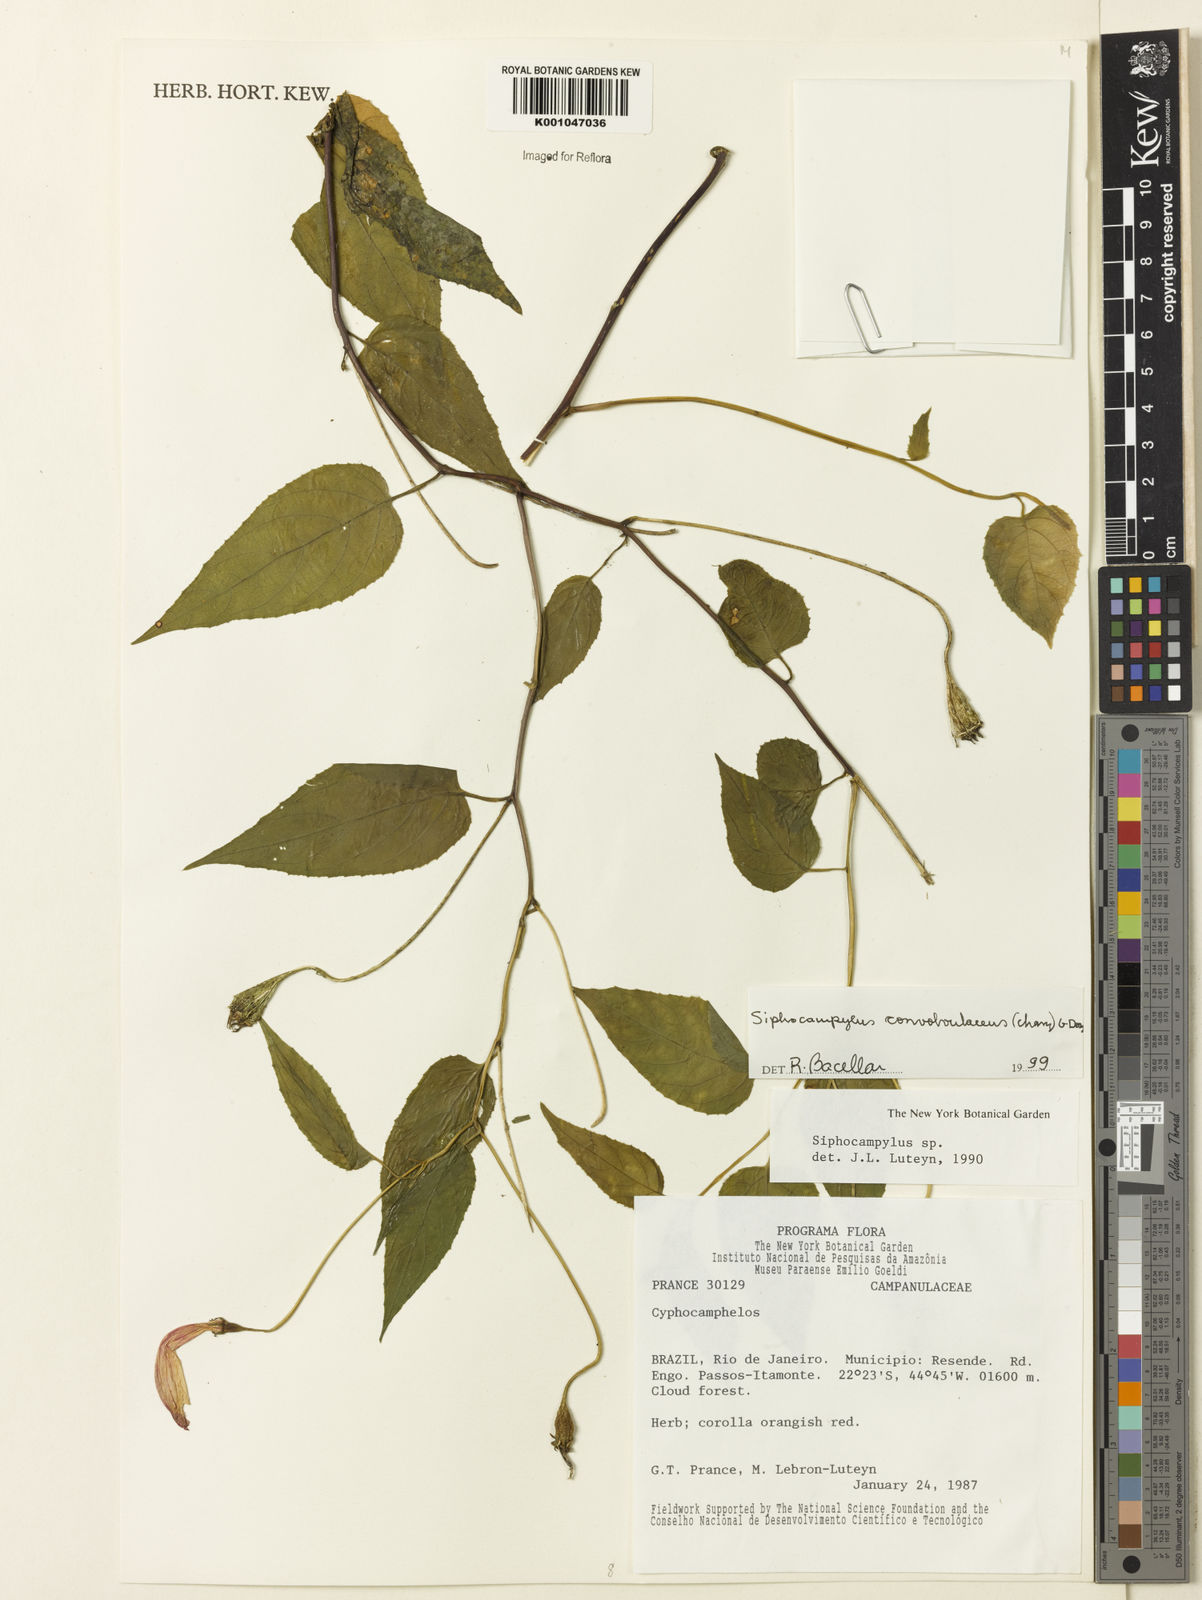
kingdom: Plantae
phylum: Tracheophyta
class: Magnoliopsida
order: Asterales
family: Campanulaceae
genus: Siphocampylus
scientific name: Siphocampylus convolvulaceus
